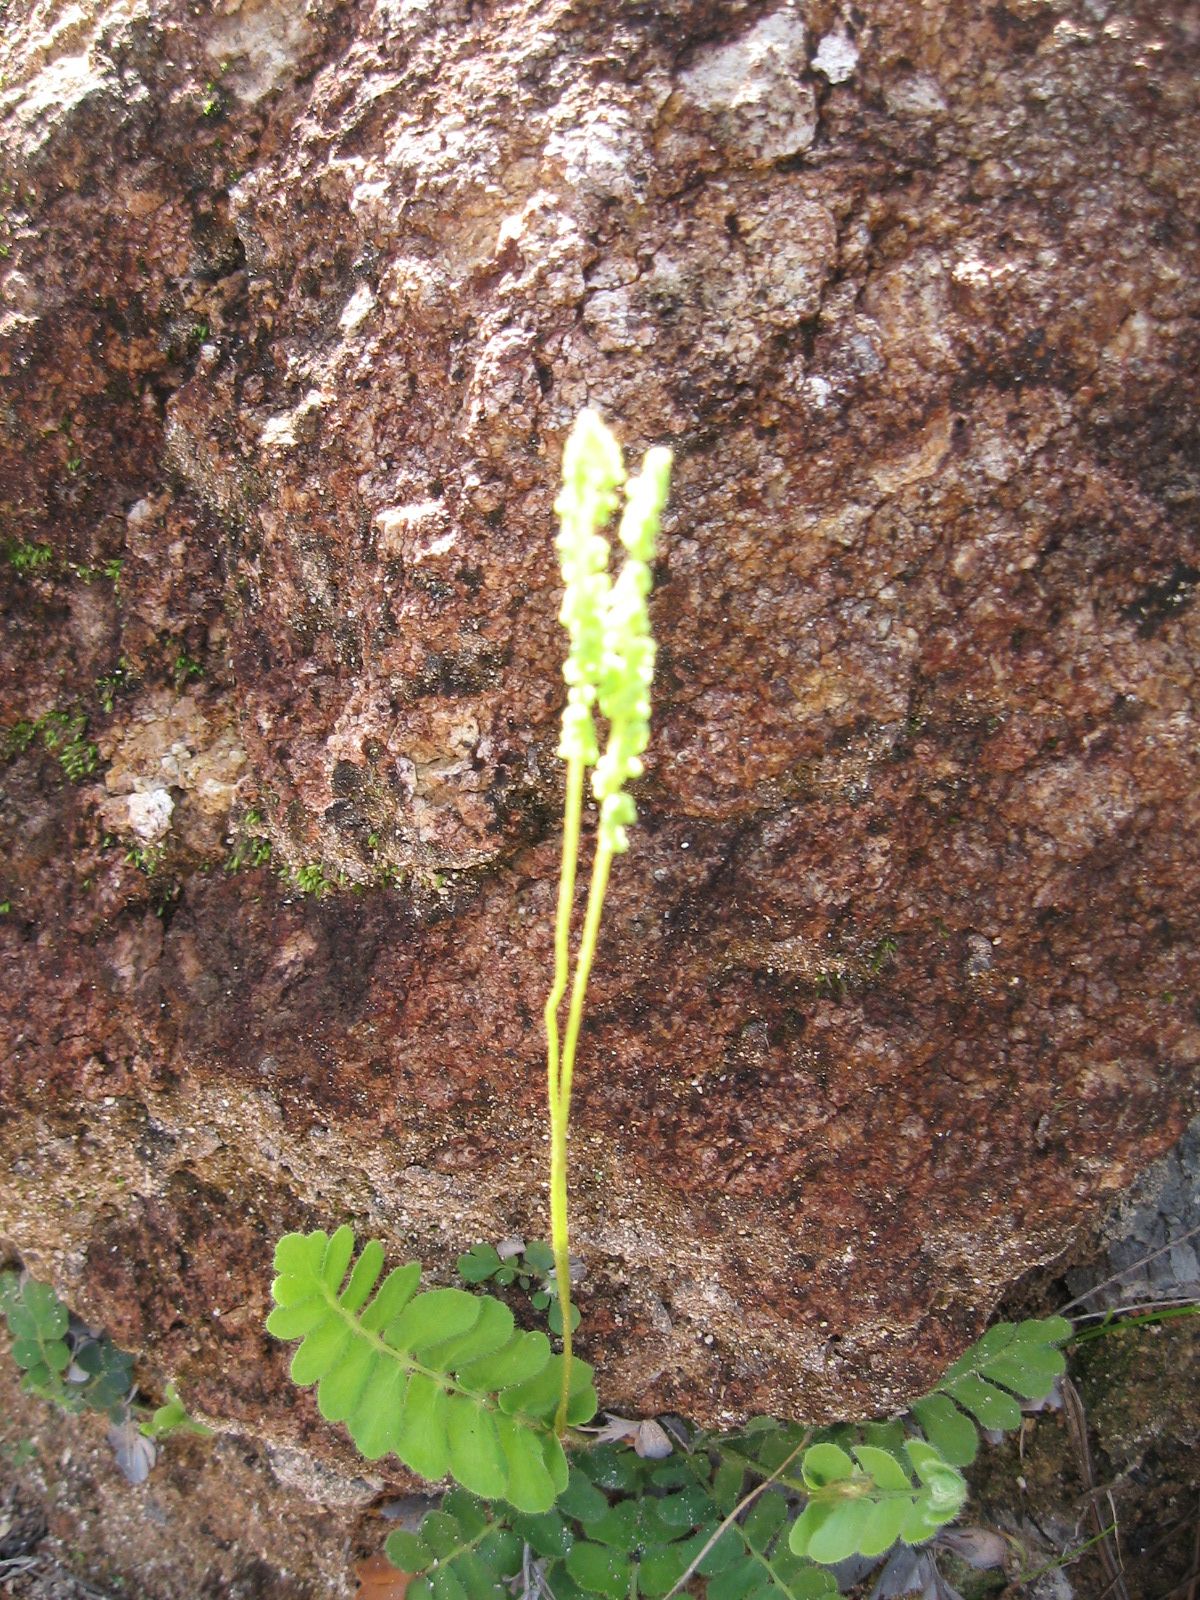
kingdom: Plantae
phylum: Tracheophyta
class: Polypodiopsida
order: Schizaeales
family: Anemiaceae
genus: Anemia
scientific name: Anemia humilis
